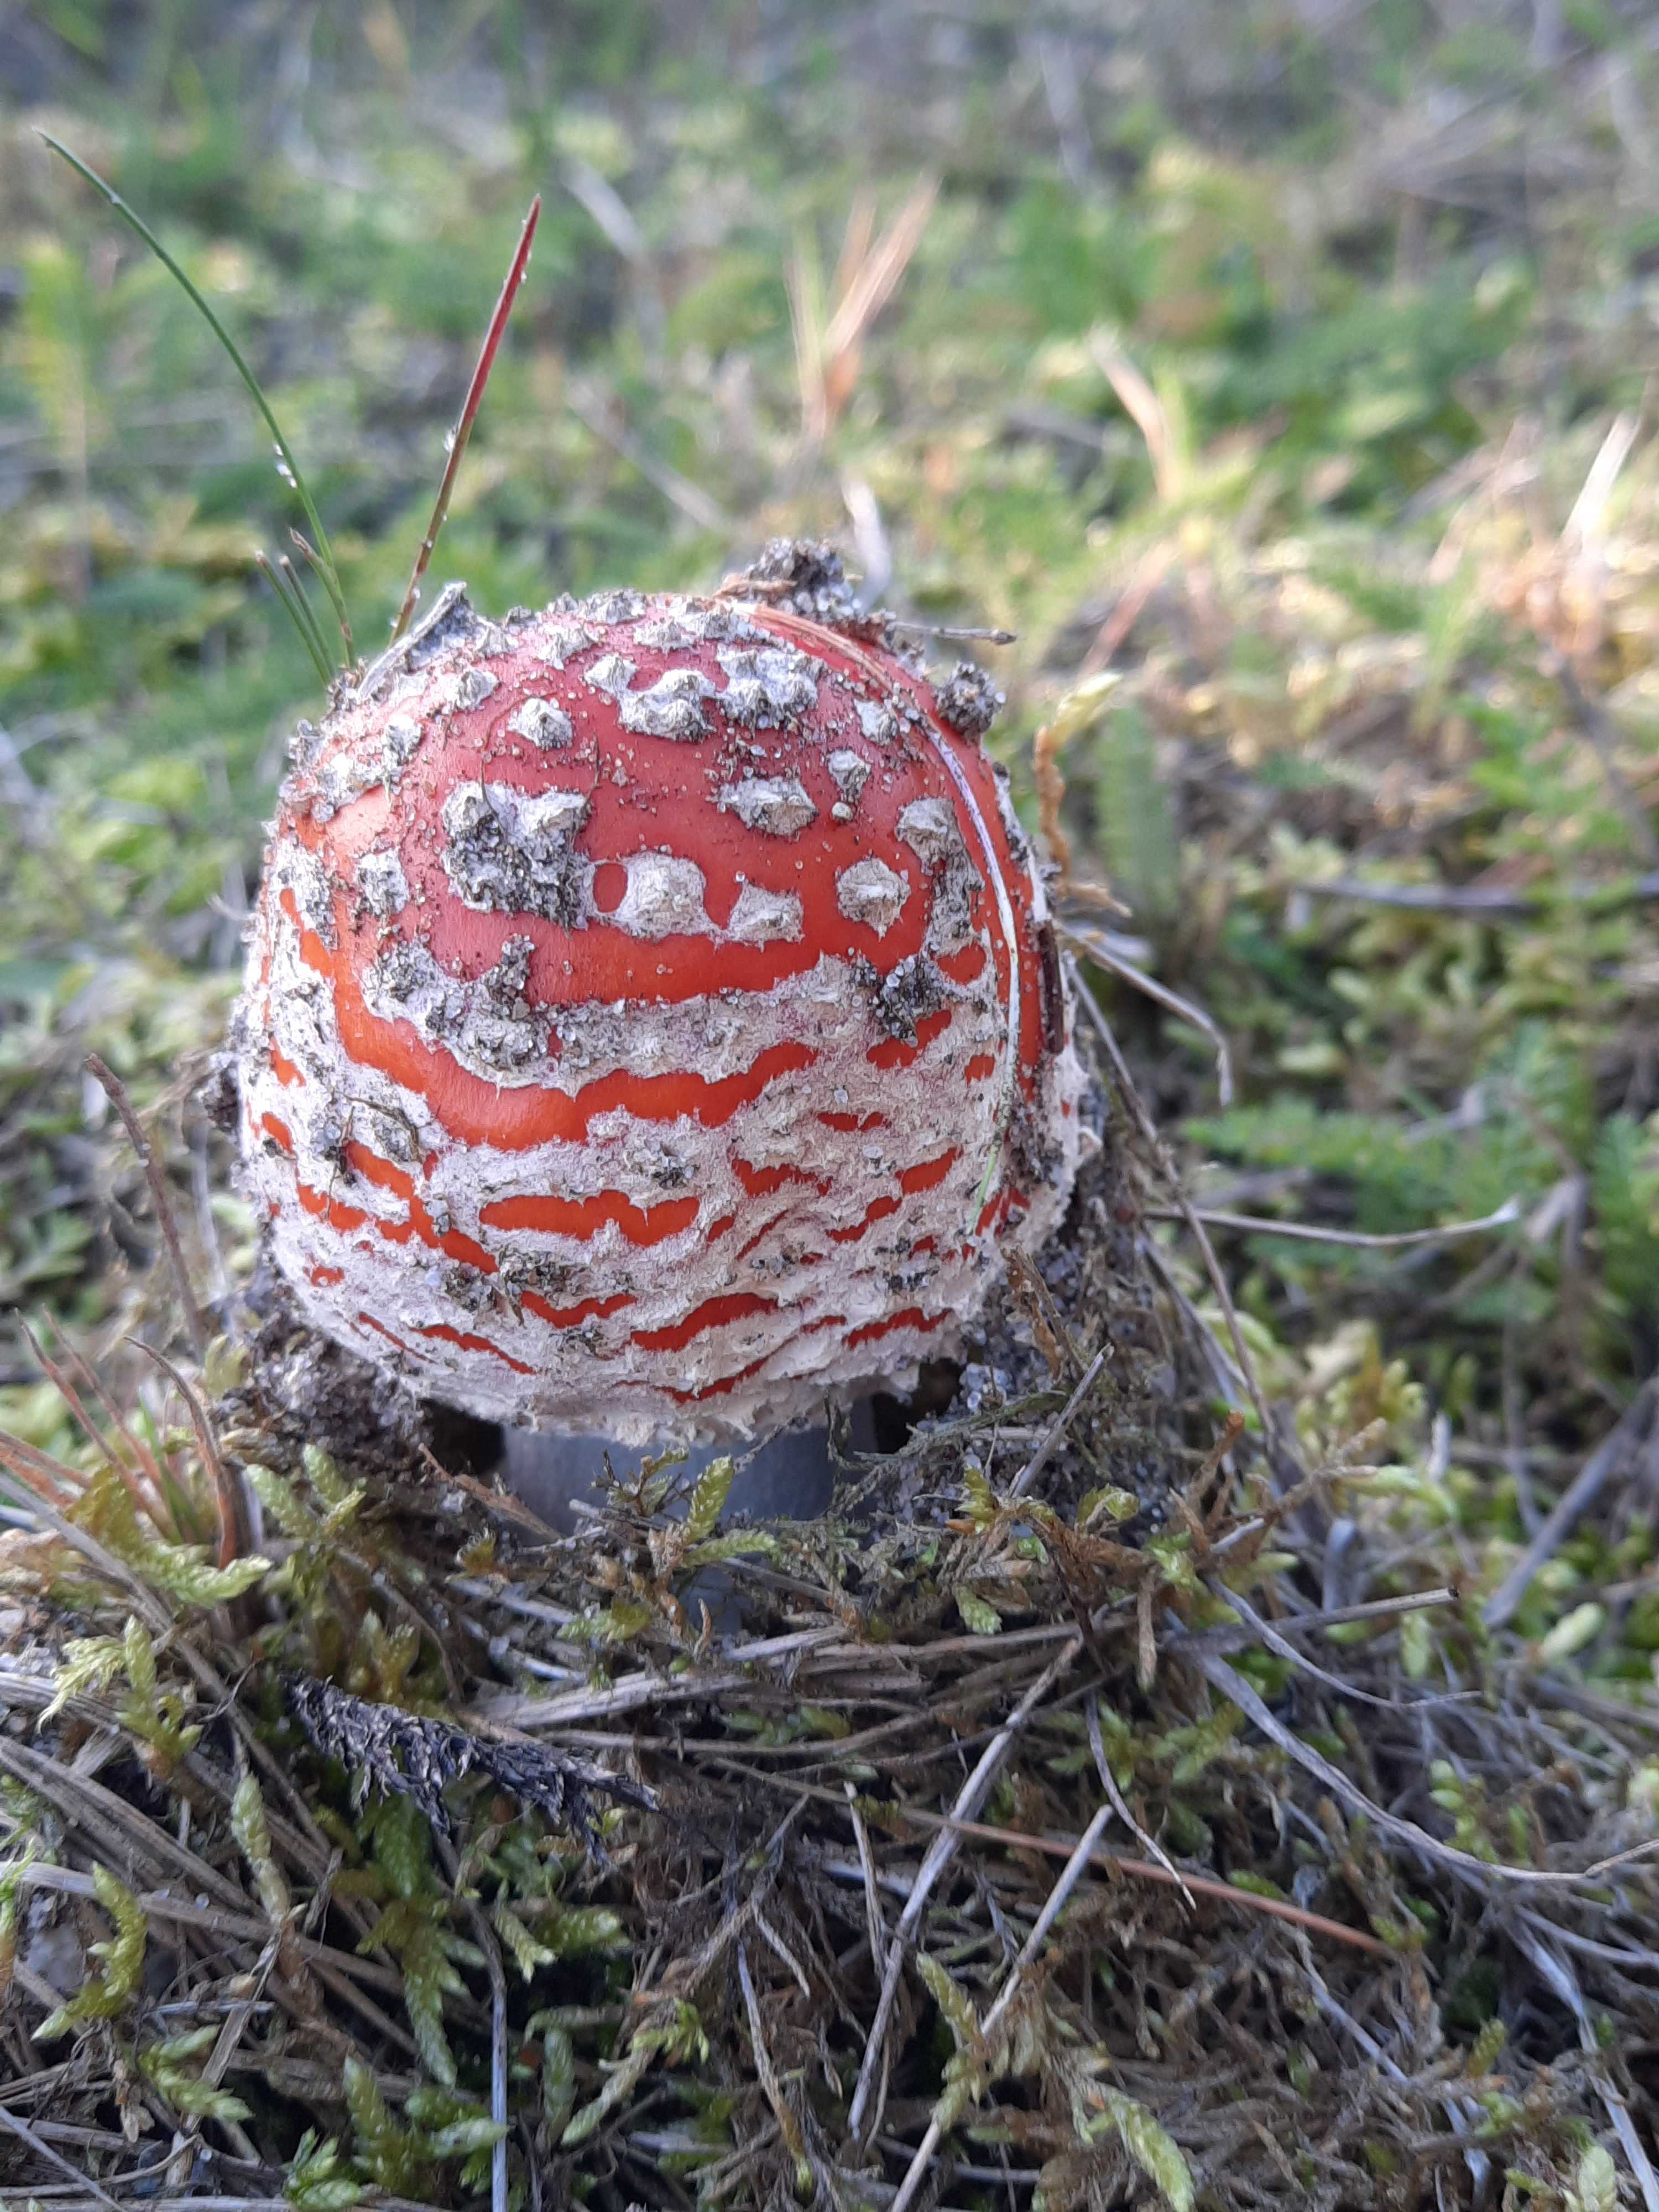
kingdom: Fungi
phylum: Basidiomycota
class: Agaricomycetes
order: Agaricales
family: Amanitaceae
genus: Amanita
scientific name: Amanita muscaria
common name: rød fluesvamp
